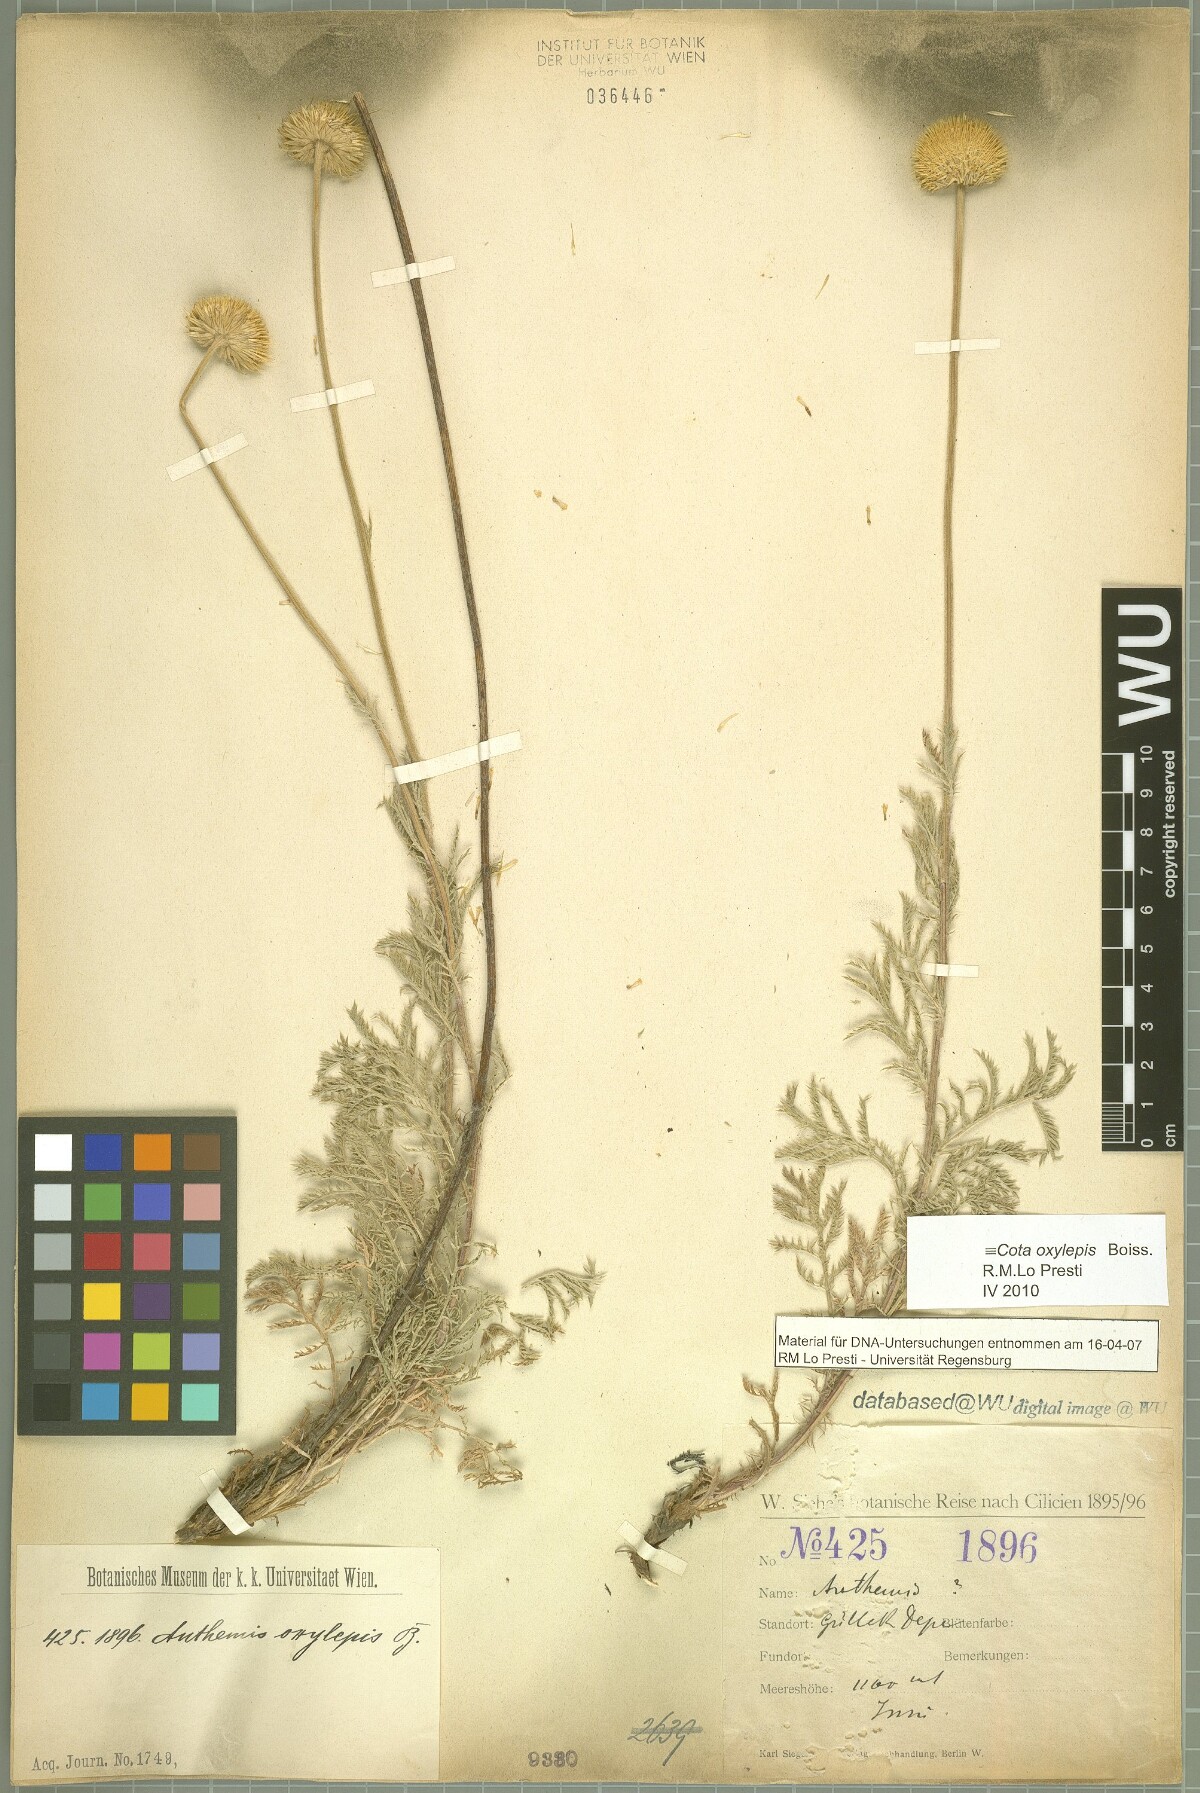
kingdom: Plantae
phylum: Tracheophyta
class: Magnoliopsida
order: Asterales
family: Asteraceae
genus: Cota
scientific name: Cota oxylepis
